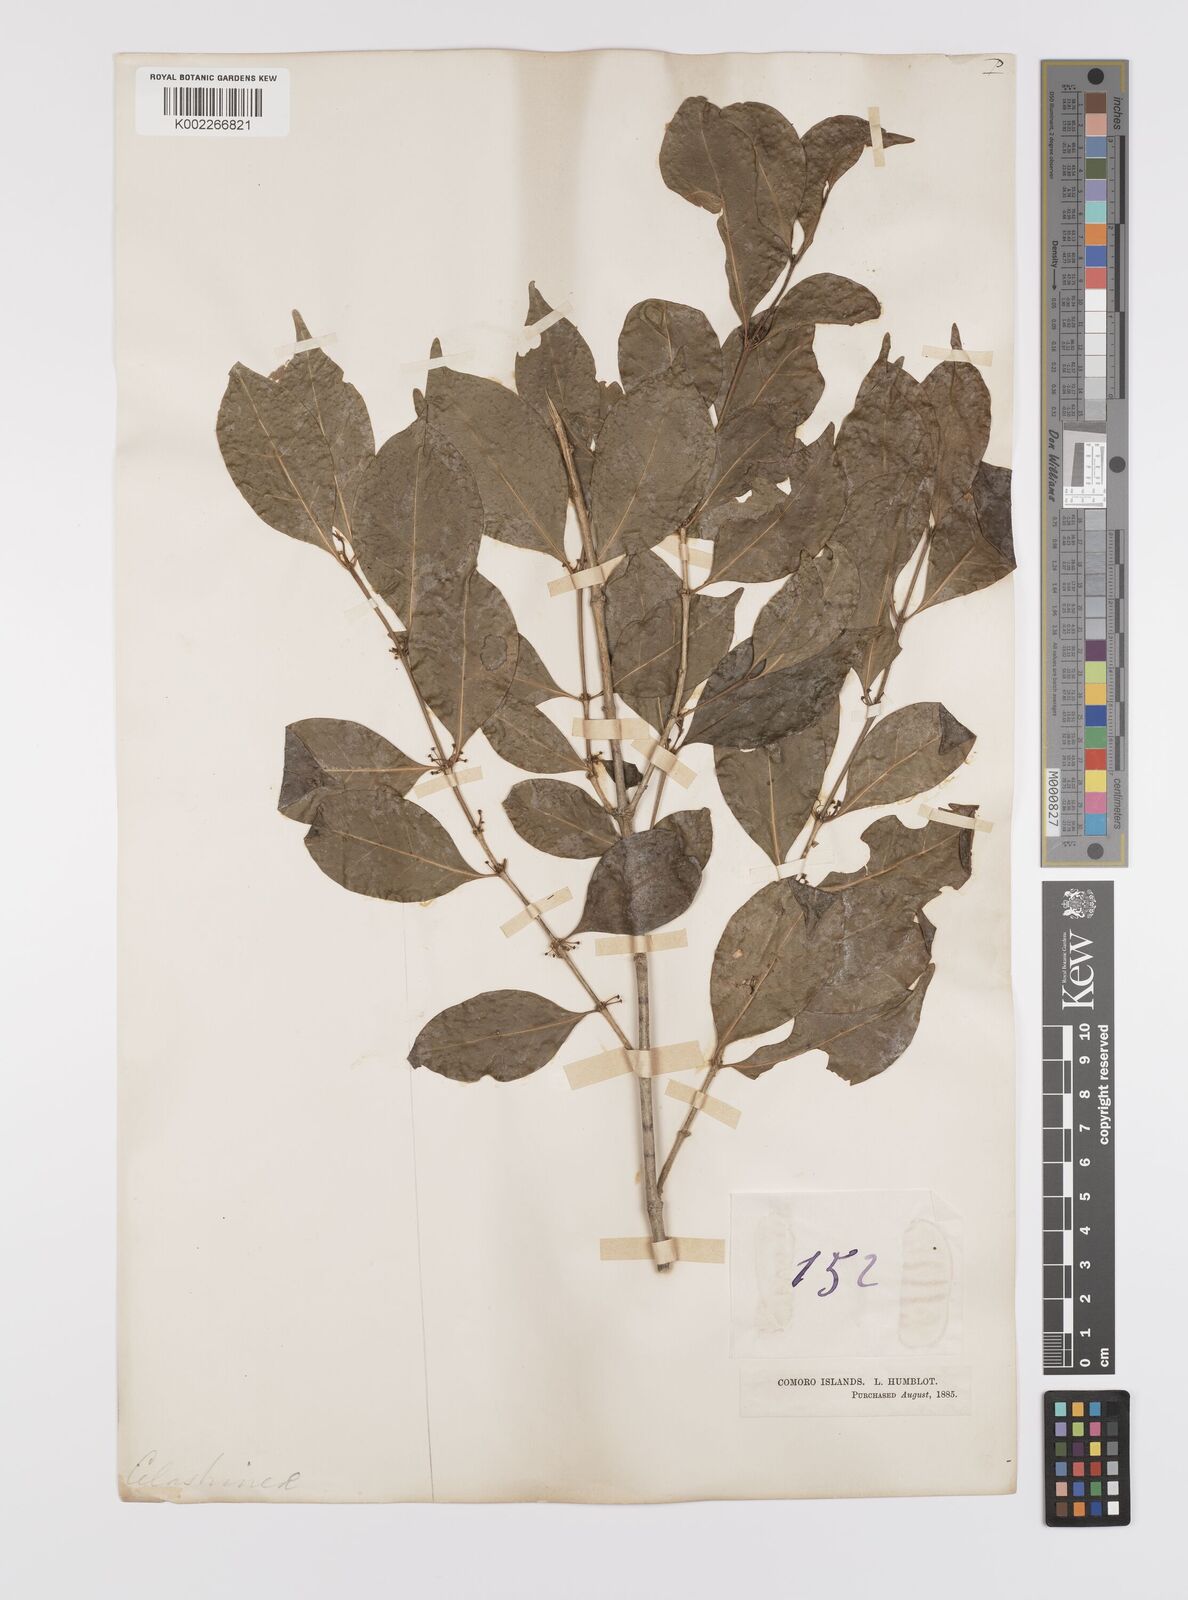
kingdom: Plantae
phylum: Tracheophyta
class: Magnoliopsida
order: Celastrales
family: Celastraceae
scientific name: Celastraceae
